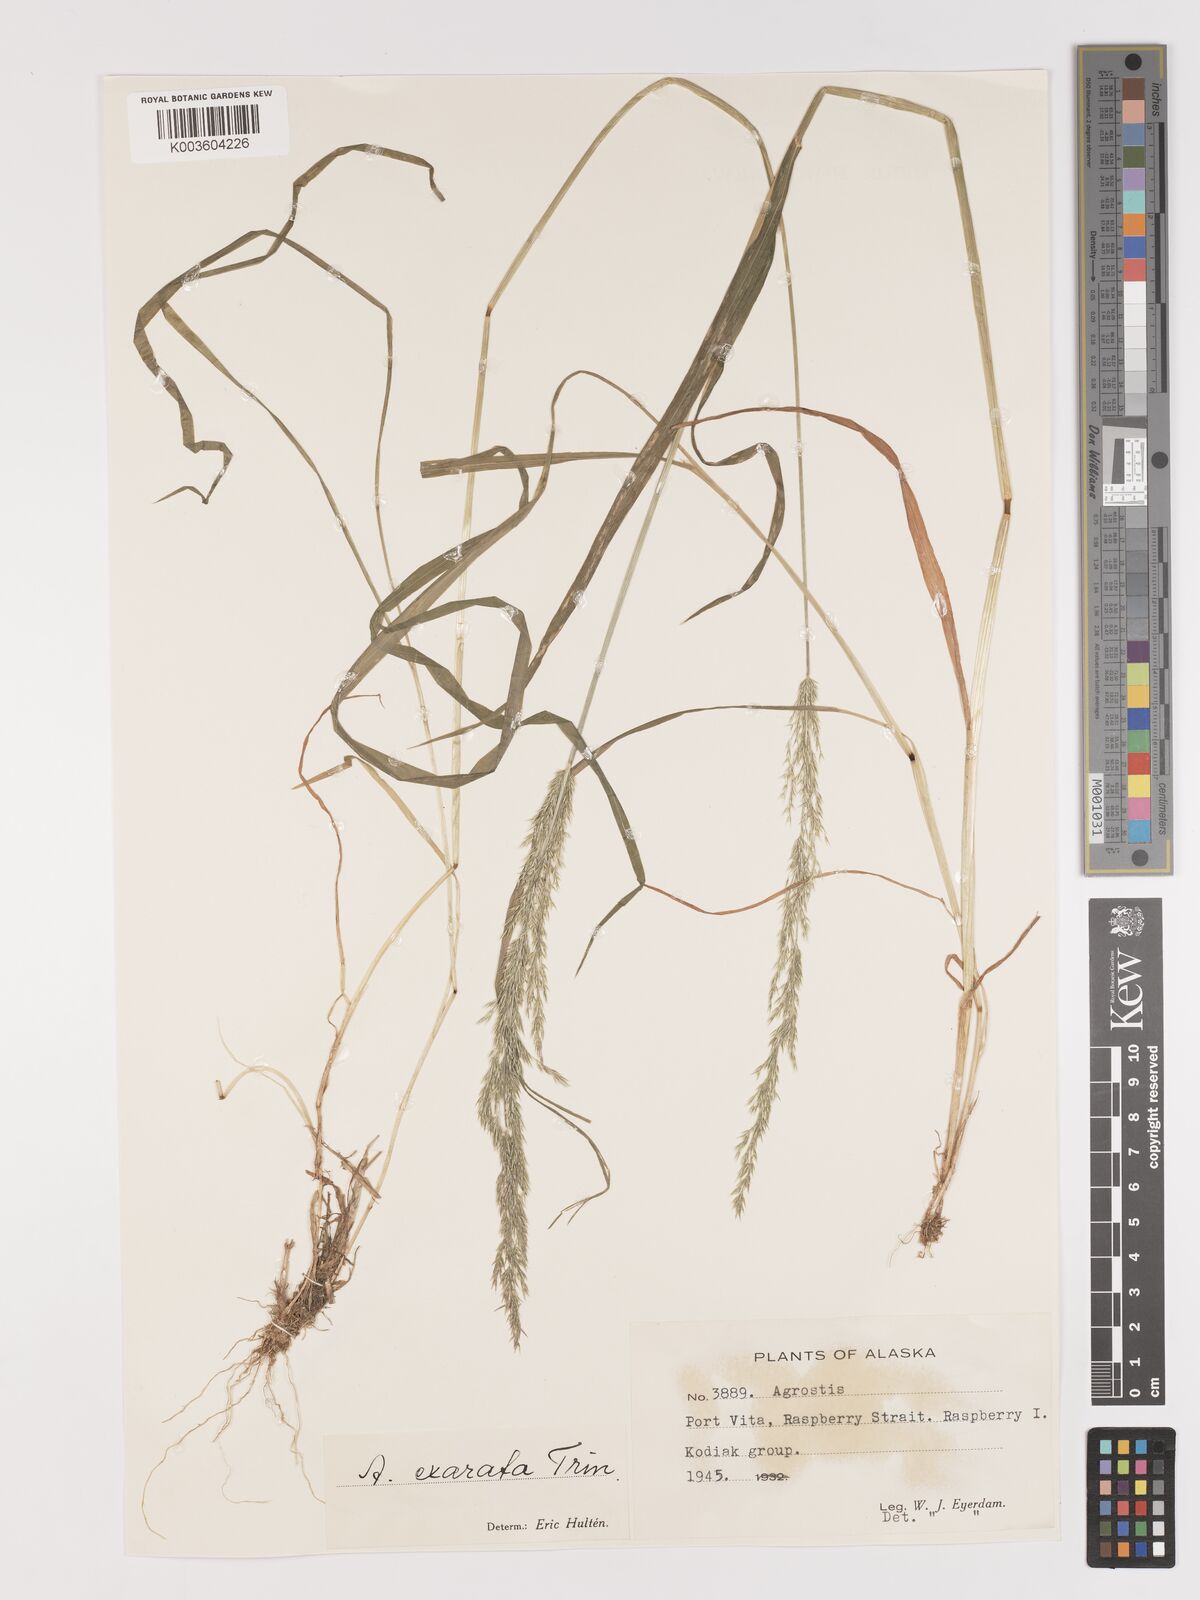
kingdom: Plantae
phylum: Tracheophyta
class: Liliopsida
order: Poales
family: Poaceae
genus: Agrostis
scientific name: Agrostis exarata
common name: Spike bent
